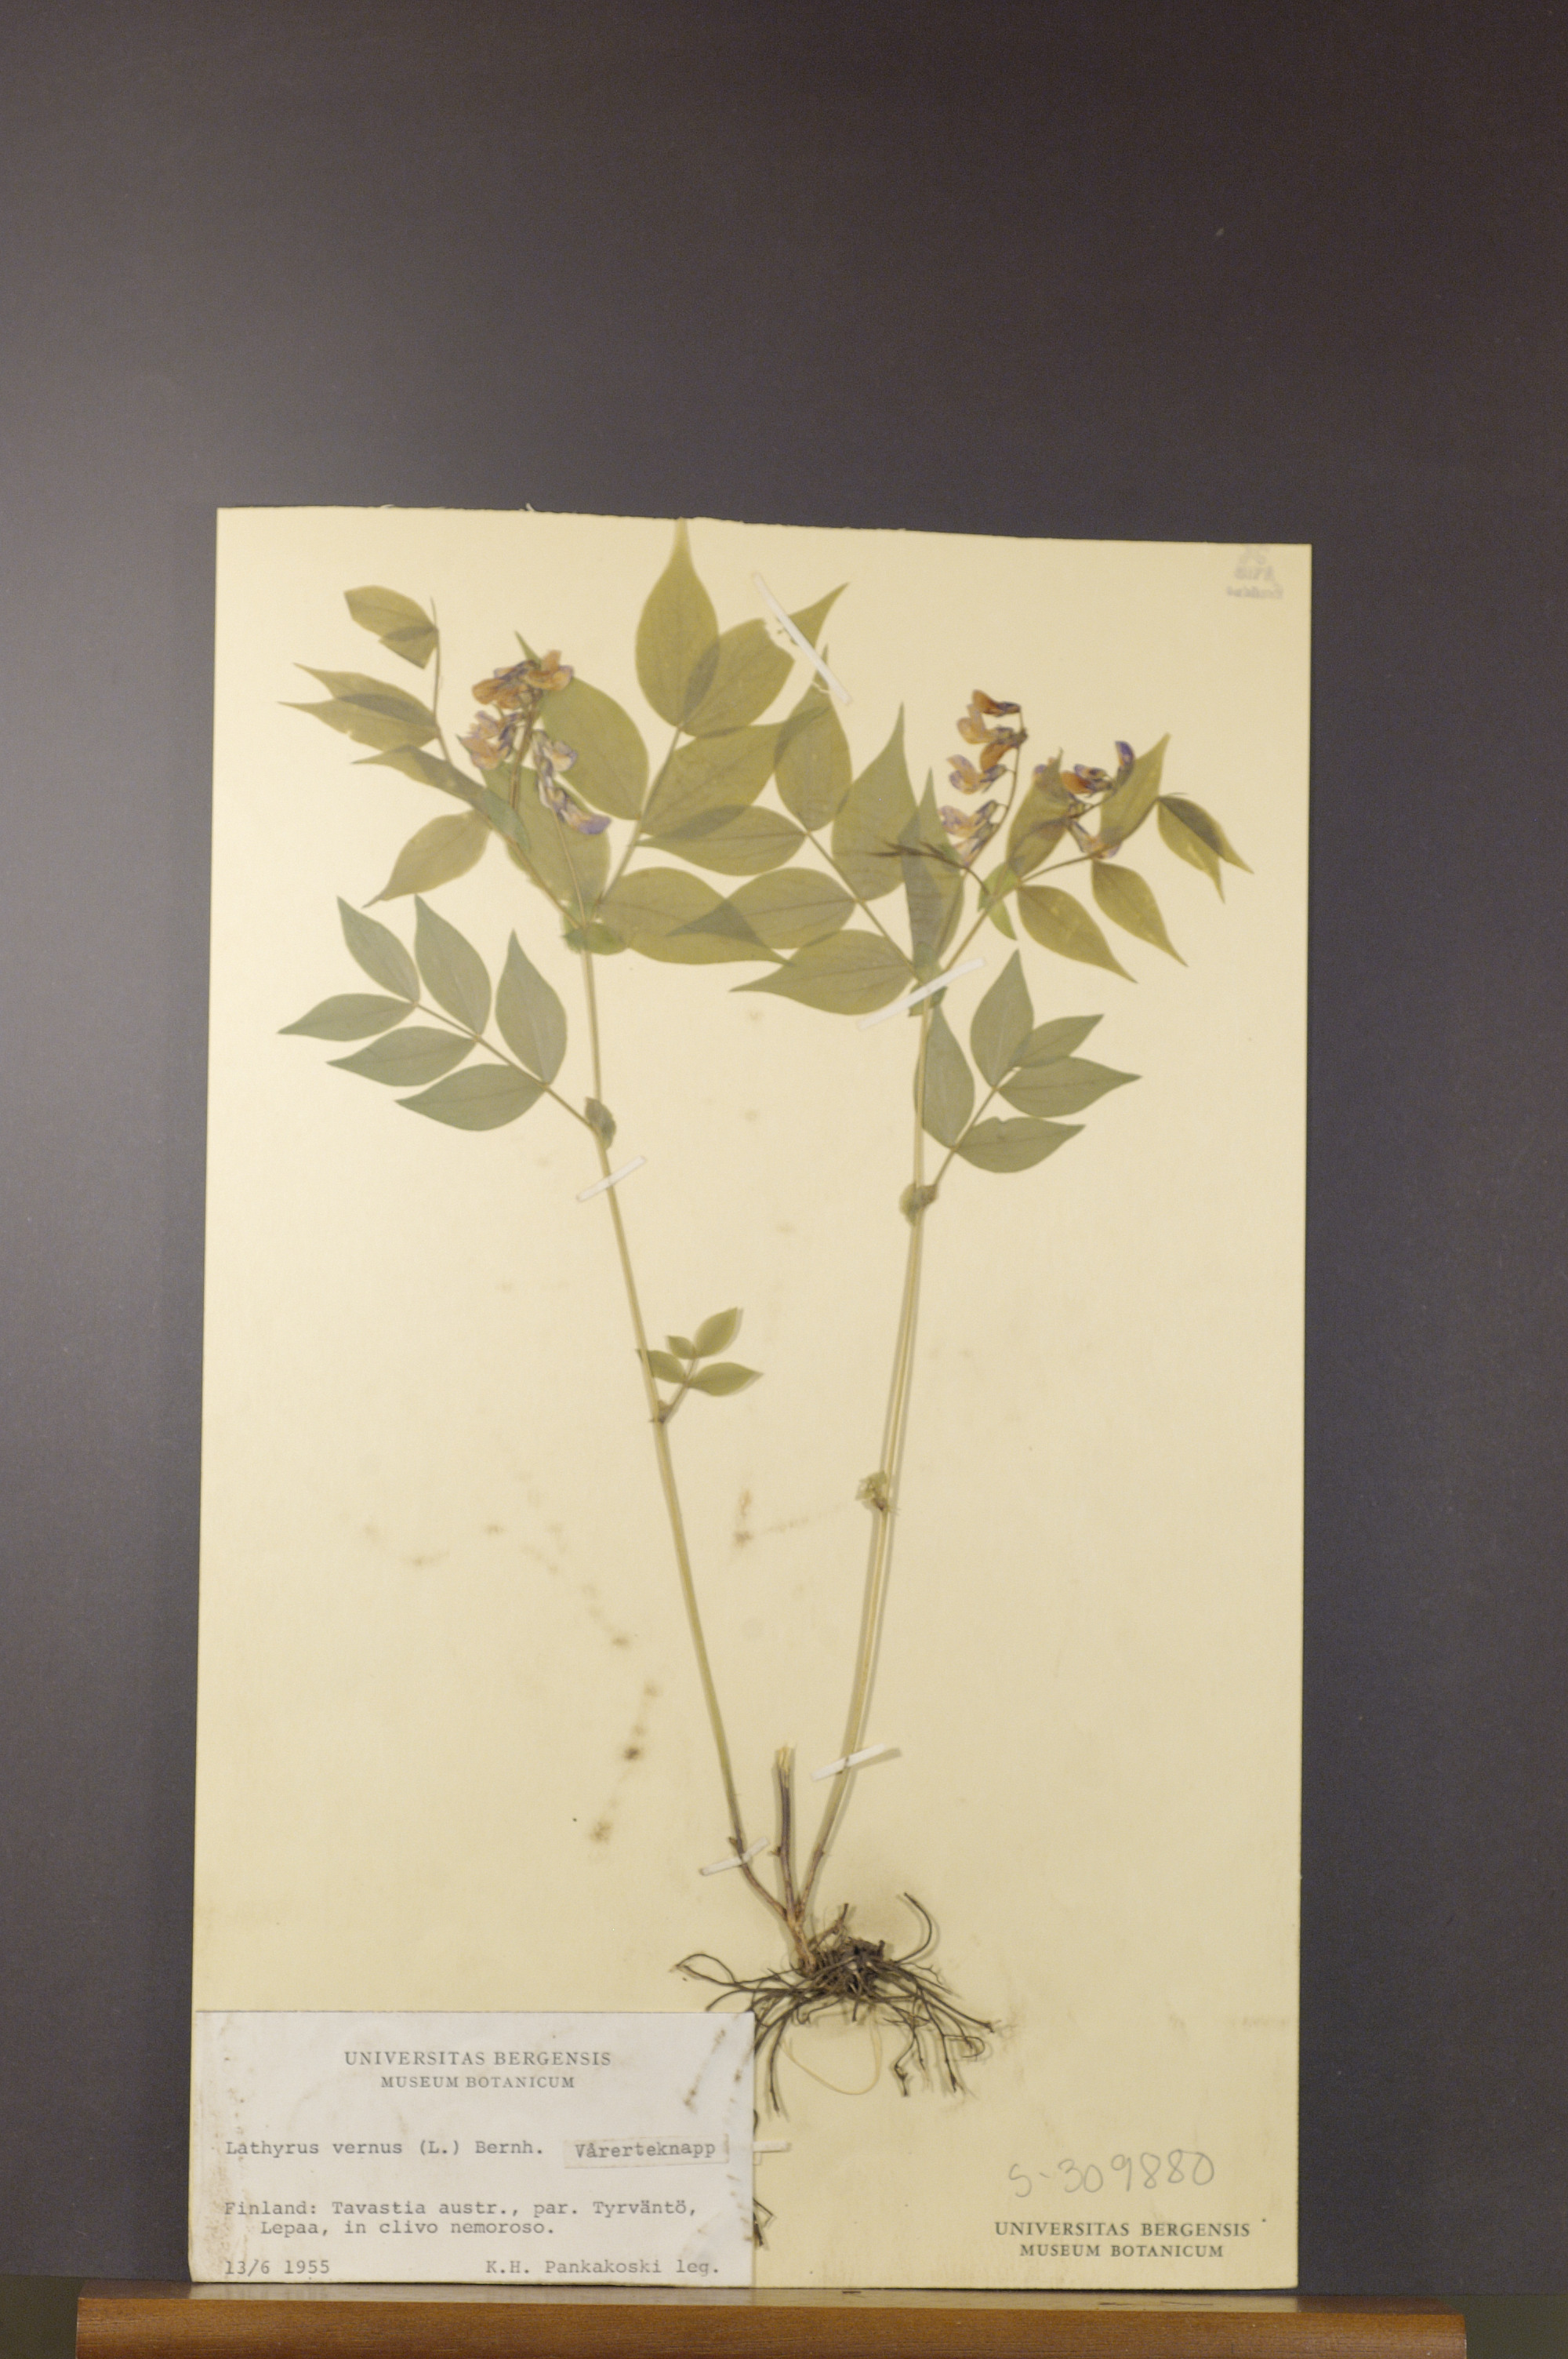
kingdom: Plantae
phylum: Tracheophyta
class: Magnoliopsida
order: Fabales
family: Fabaceae
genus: Lathyrus
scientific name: Lathyrus vernus
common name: Spring pea
